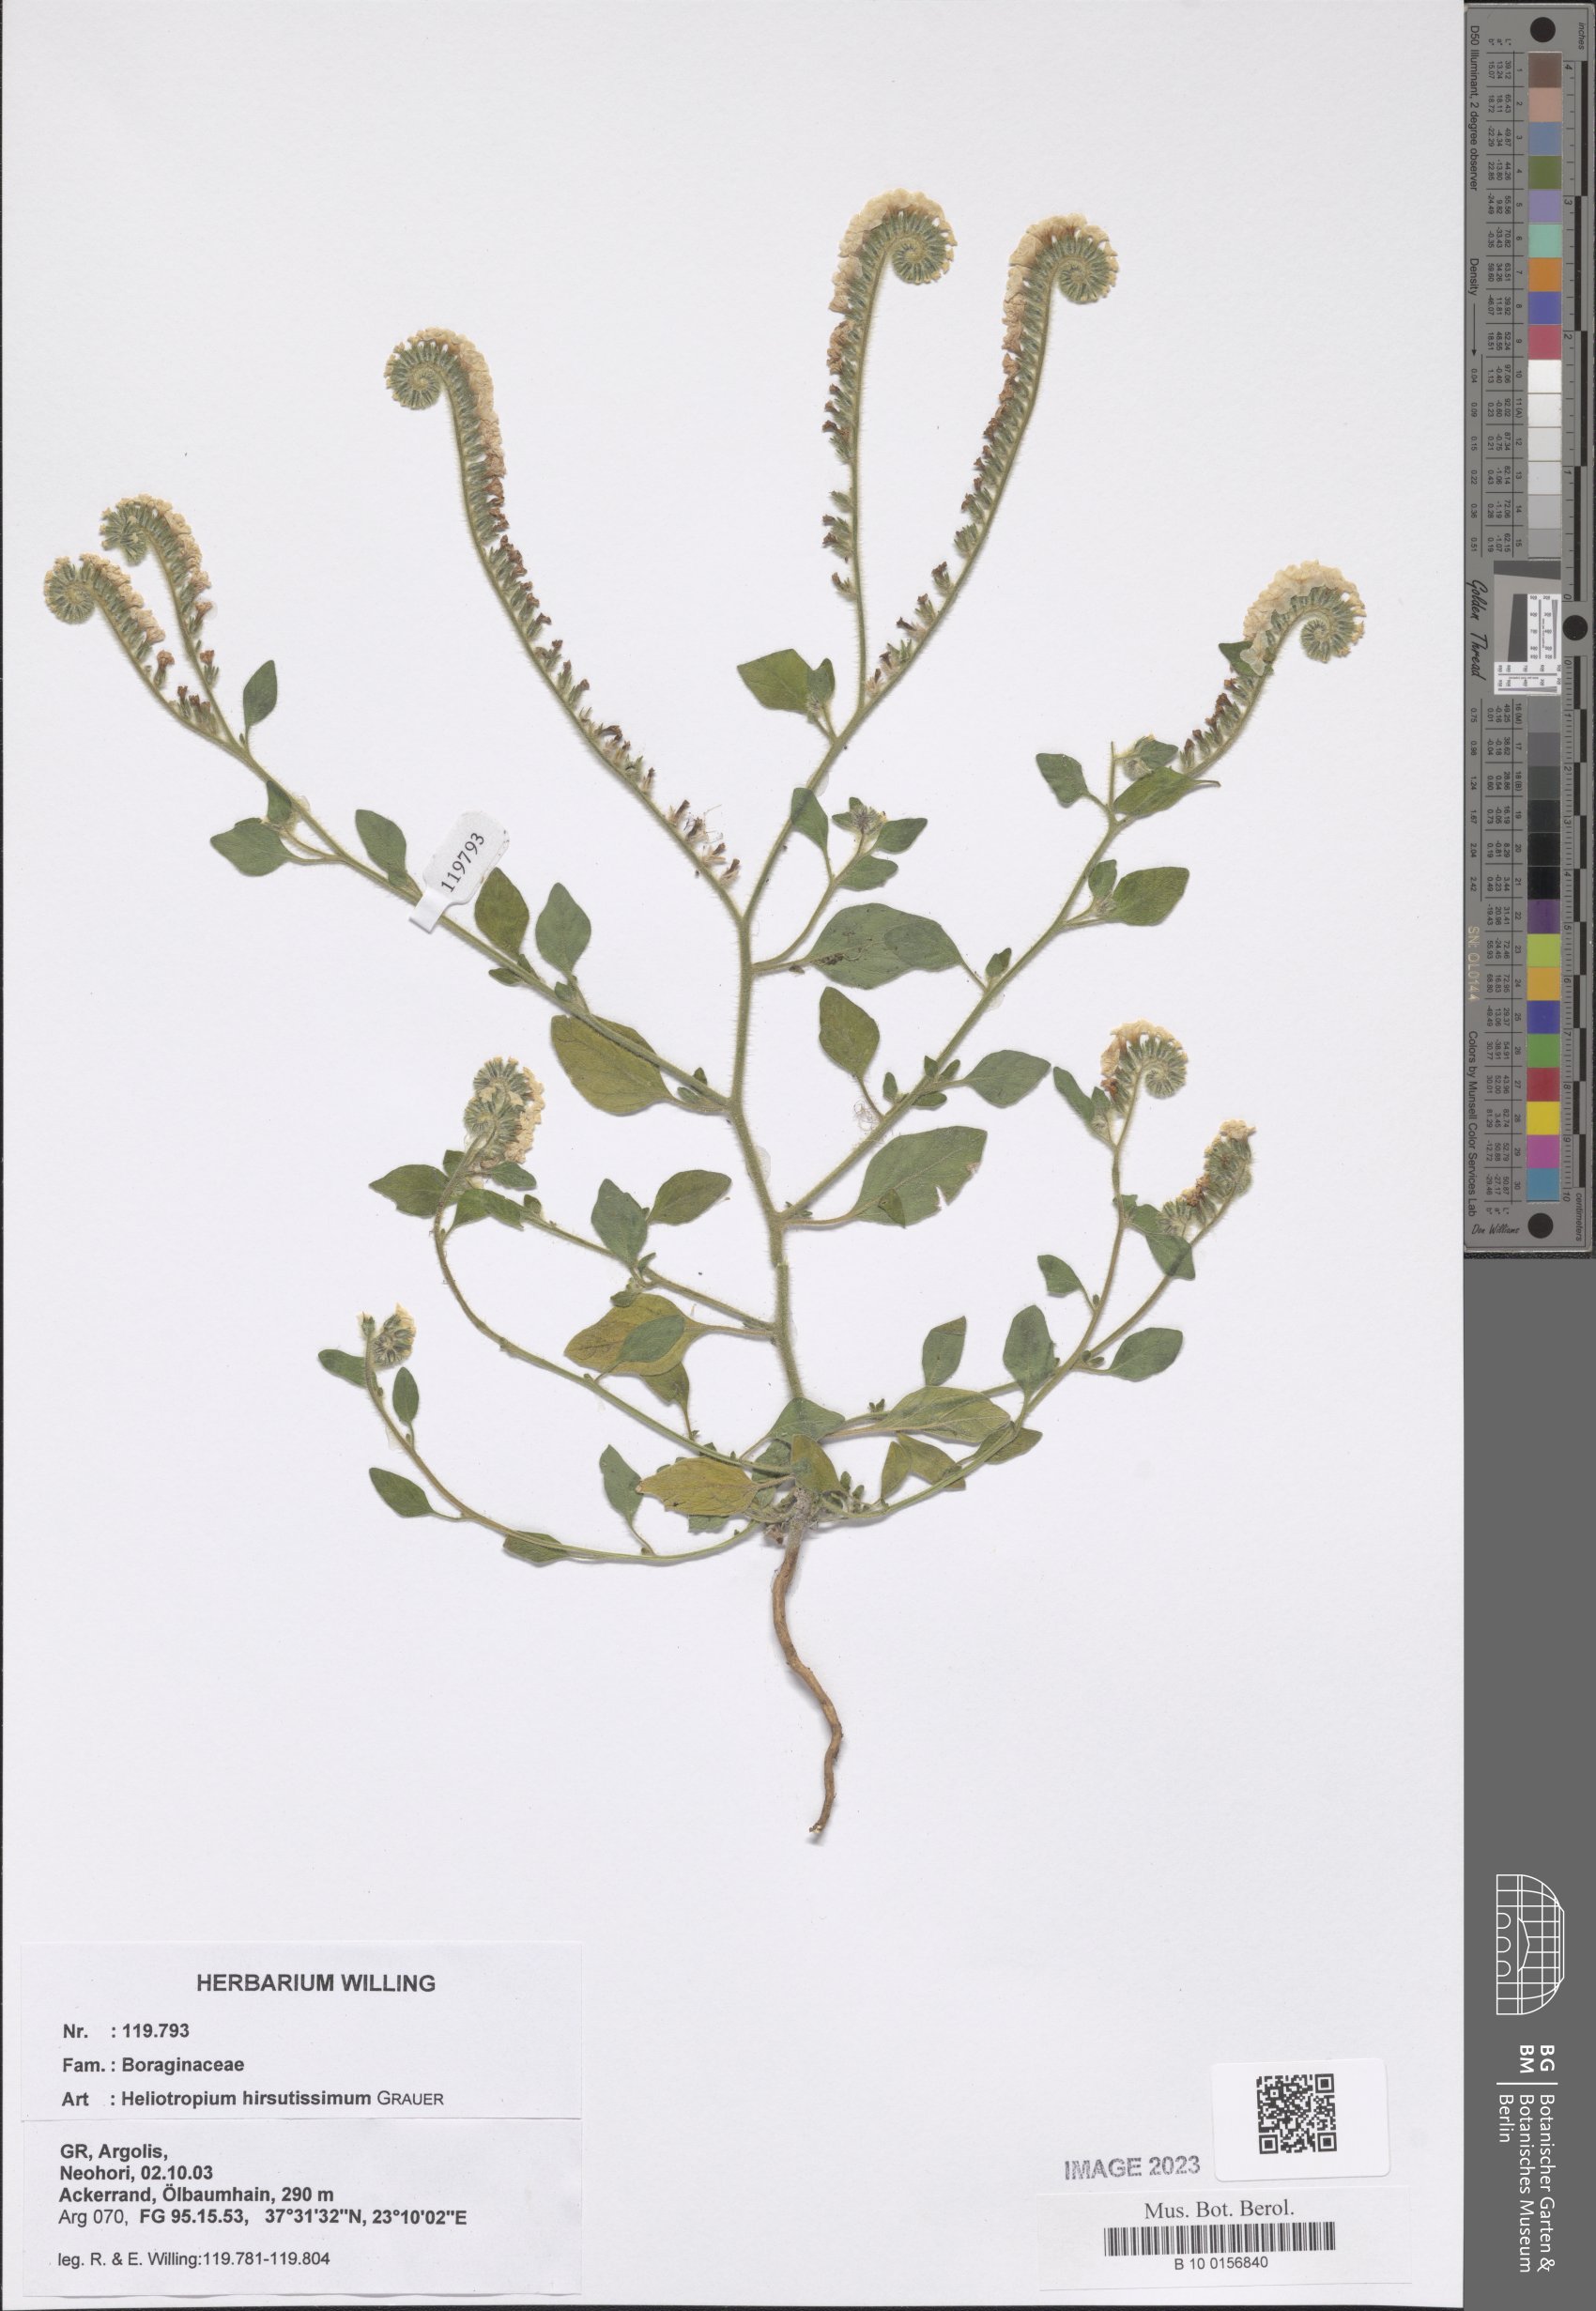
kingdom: Plantae
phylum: Tracheophyta
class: Magnoliopsida
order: Boraginales
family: Heliotropiaceae
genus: Heliotropium
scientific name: Heliotropium hirsutissimum
